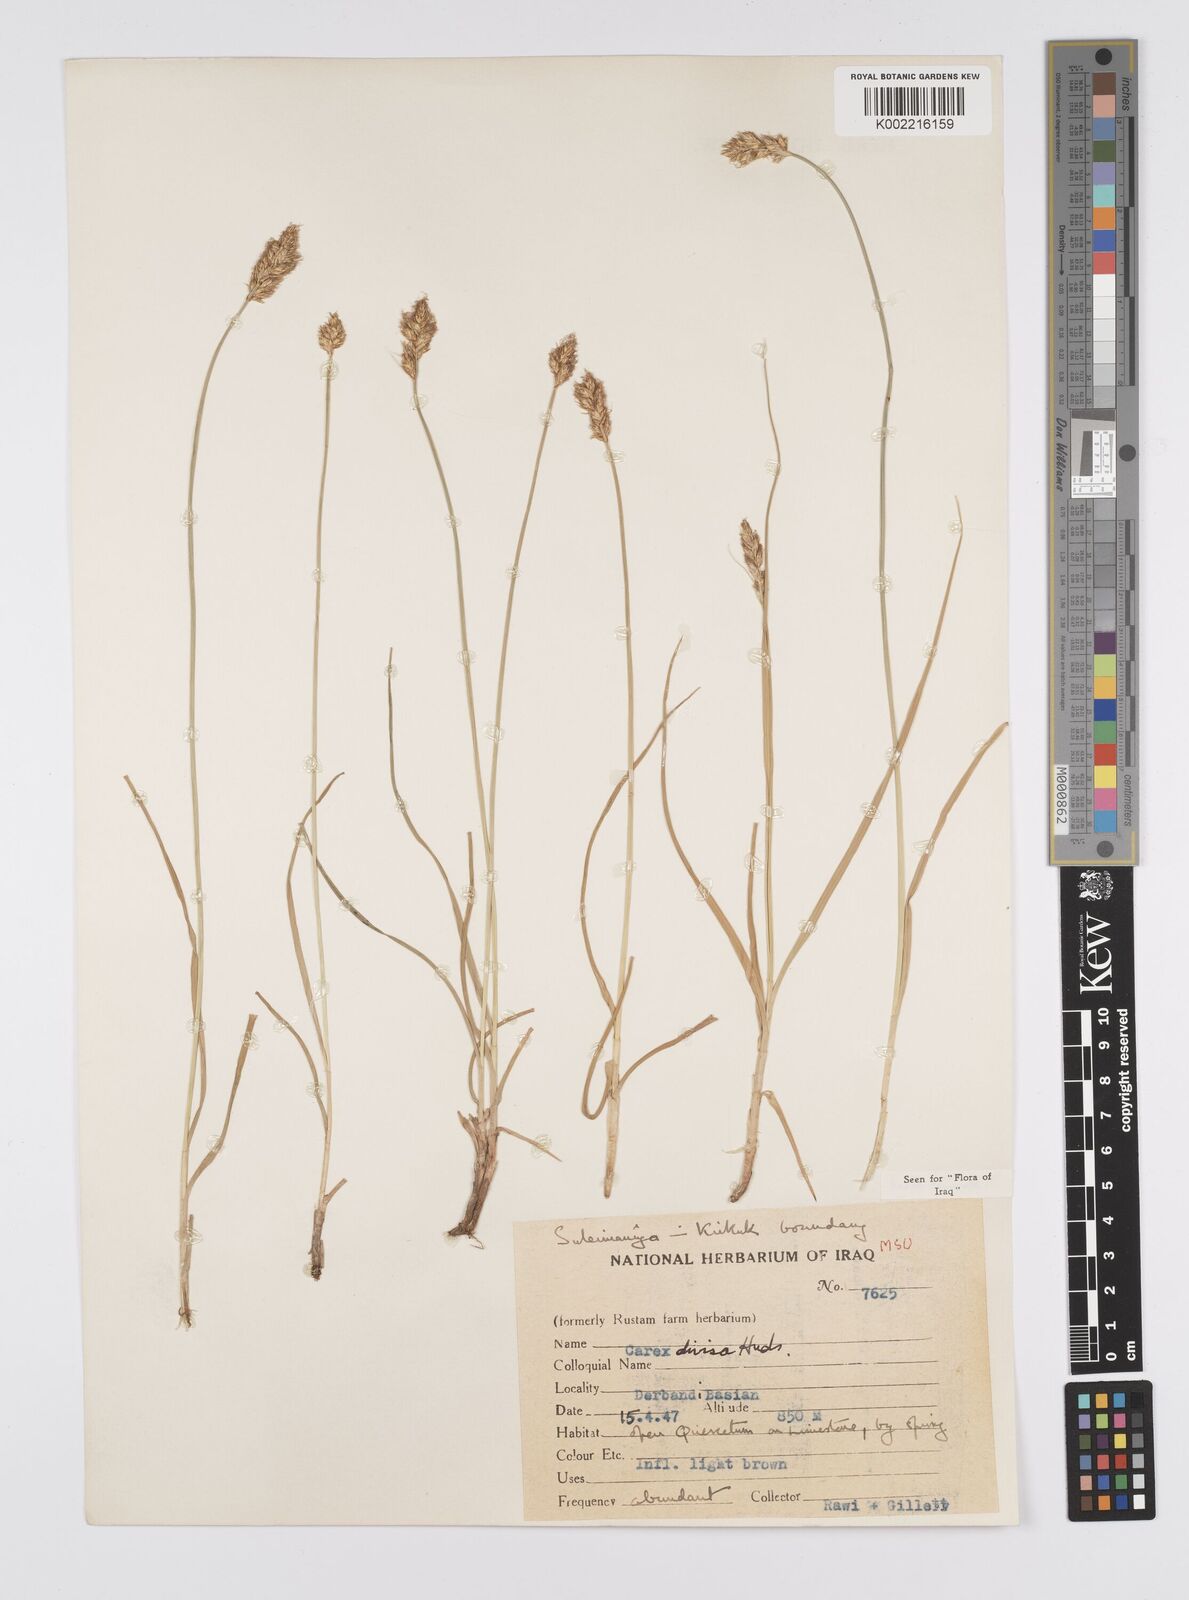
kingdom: Plantae
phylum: Tracheophyta
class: Liliopsida
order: Poales
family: Cyperaceae
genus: Carex
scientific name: Carex divisa
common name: Divided sedge
